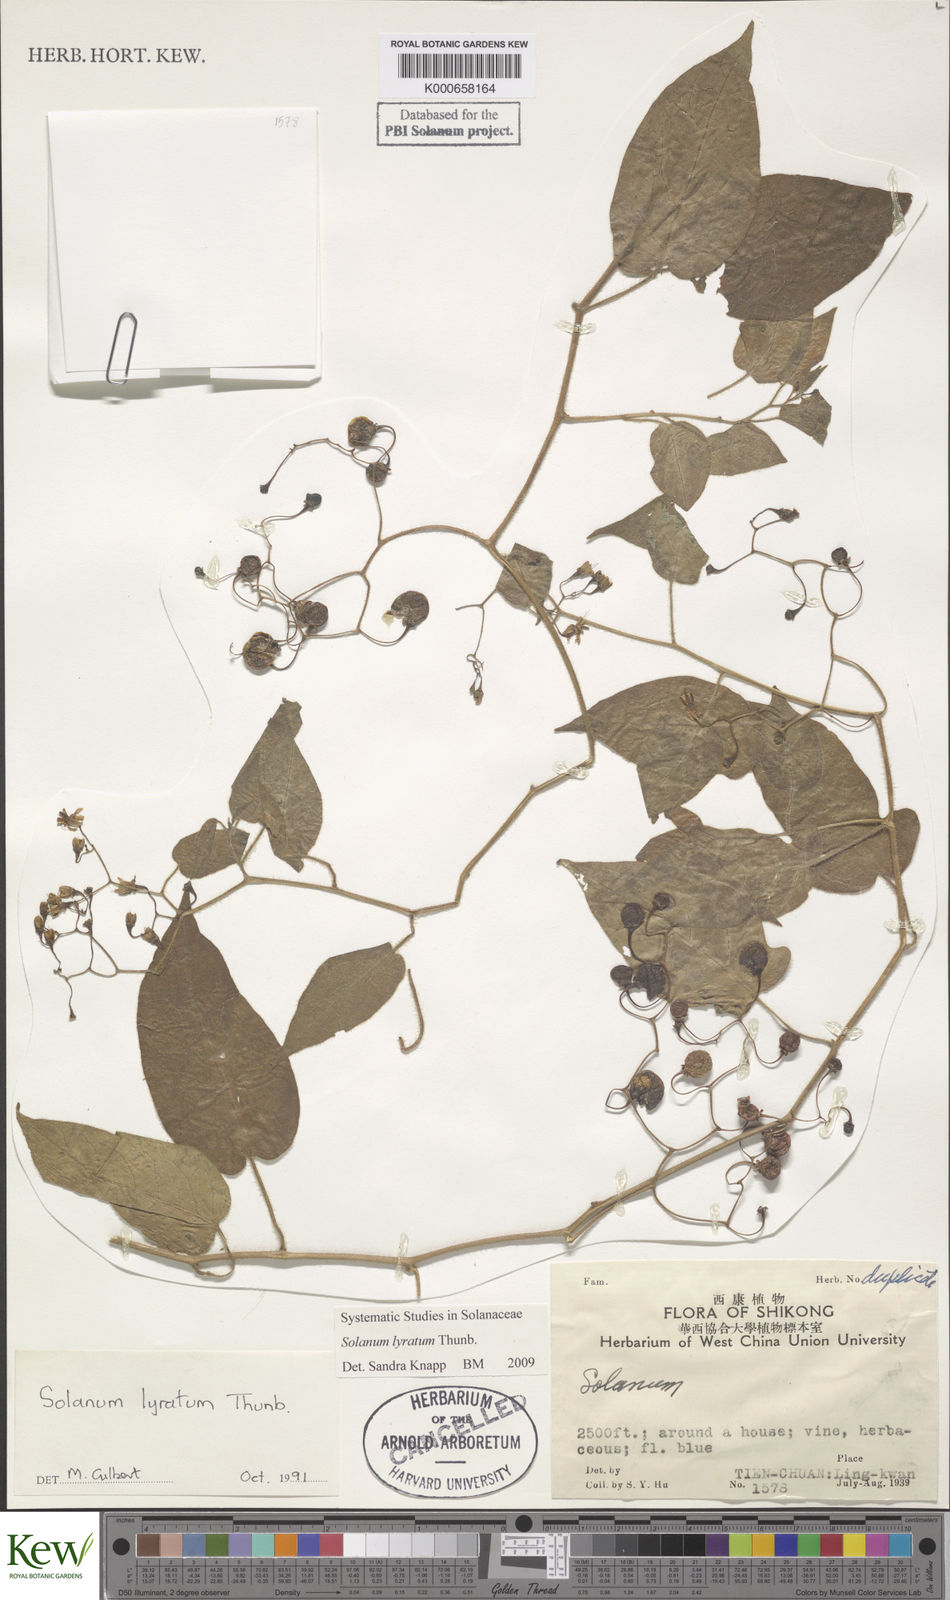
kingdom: Plantae
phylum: Tracheophyta
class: Magnoliopsida
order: Solanales
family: Solanaceae
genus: Solanum
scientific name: Solanum lyratum
